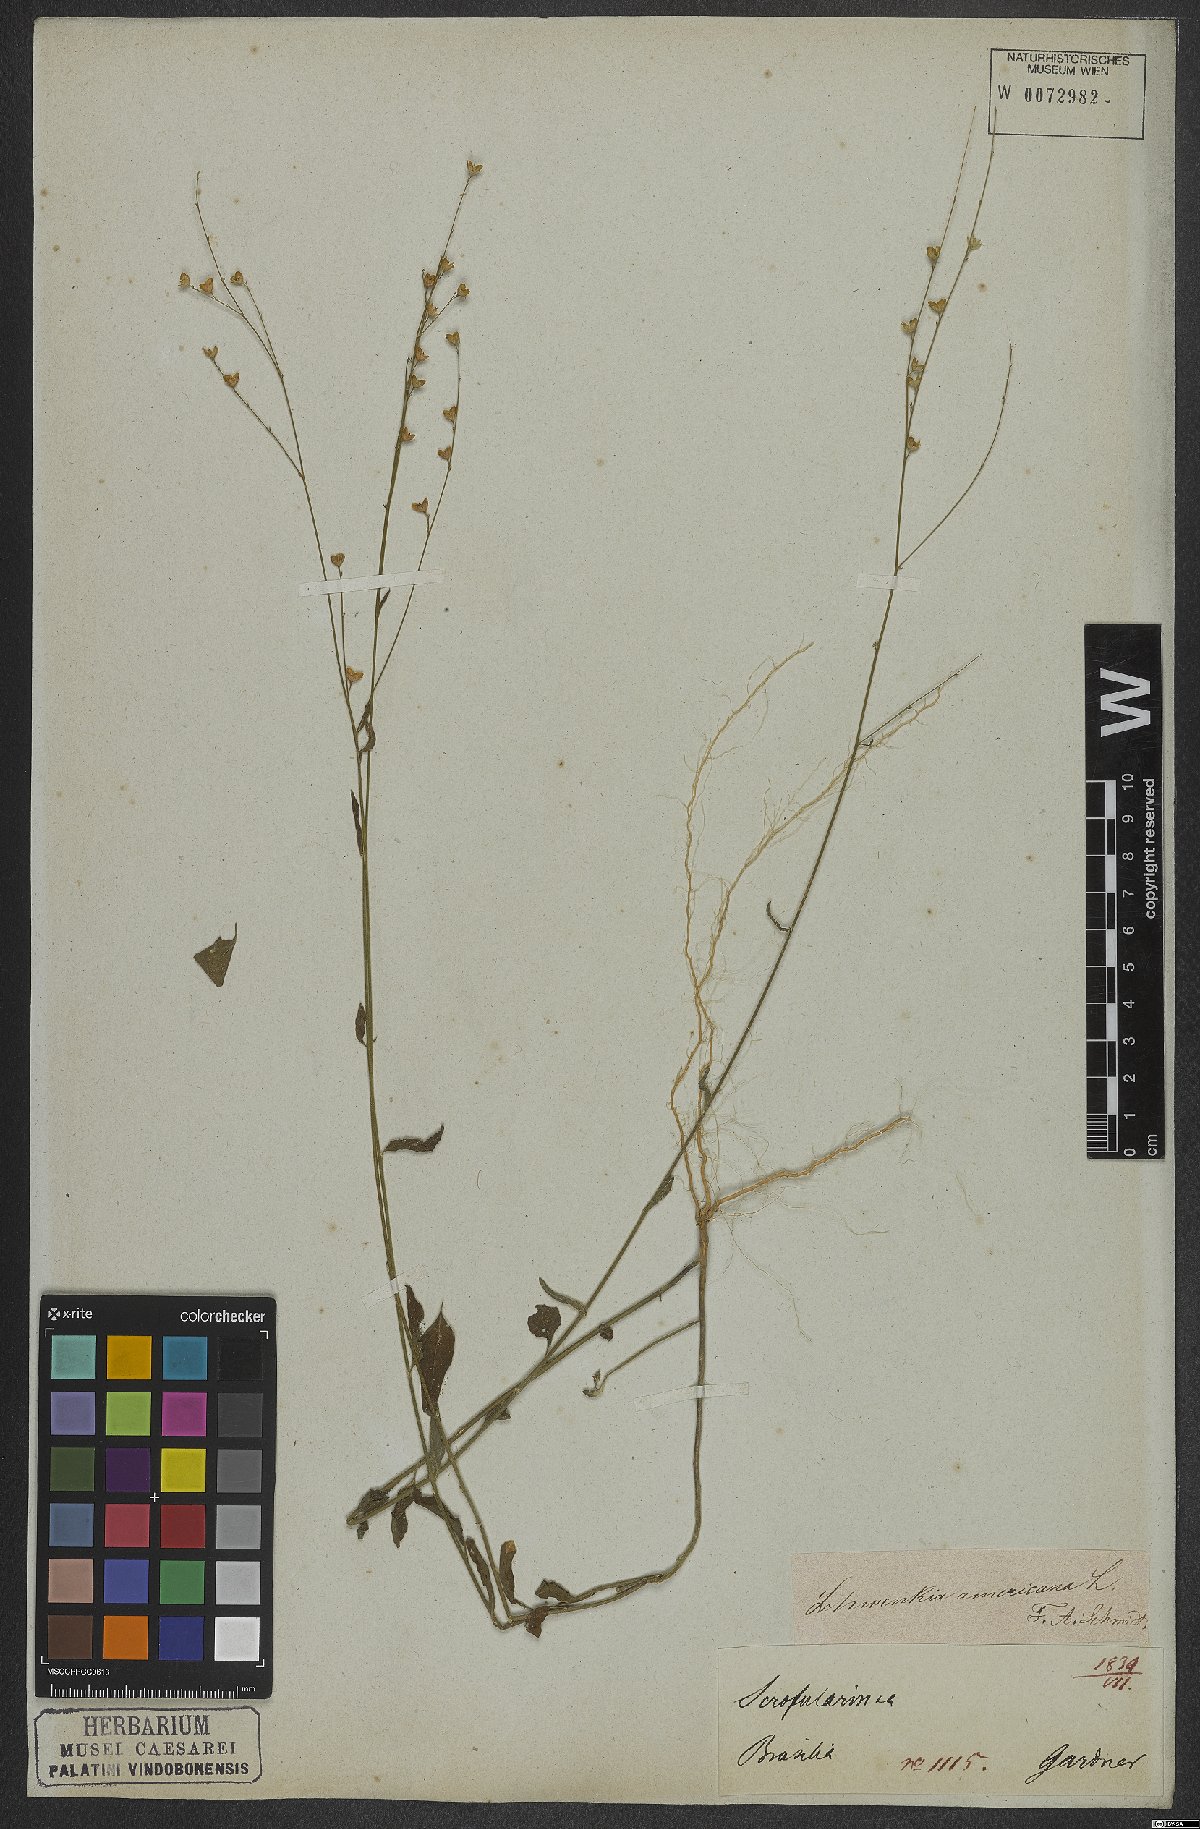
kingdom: Plantae
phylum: Tracheophyta
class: Magnoliopsida
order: Solanales
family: Solanaceae
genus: Schwenckia
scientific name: Schwenckia americana
